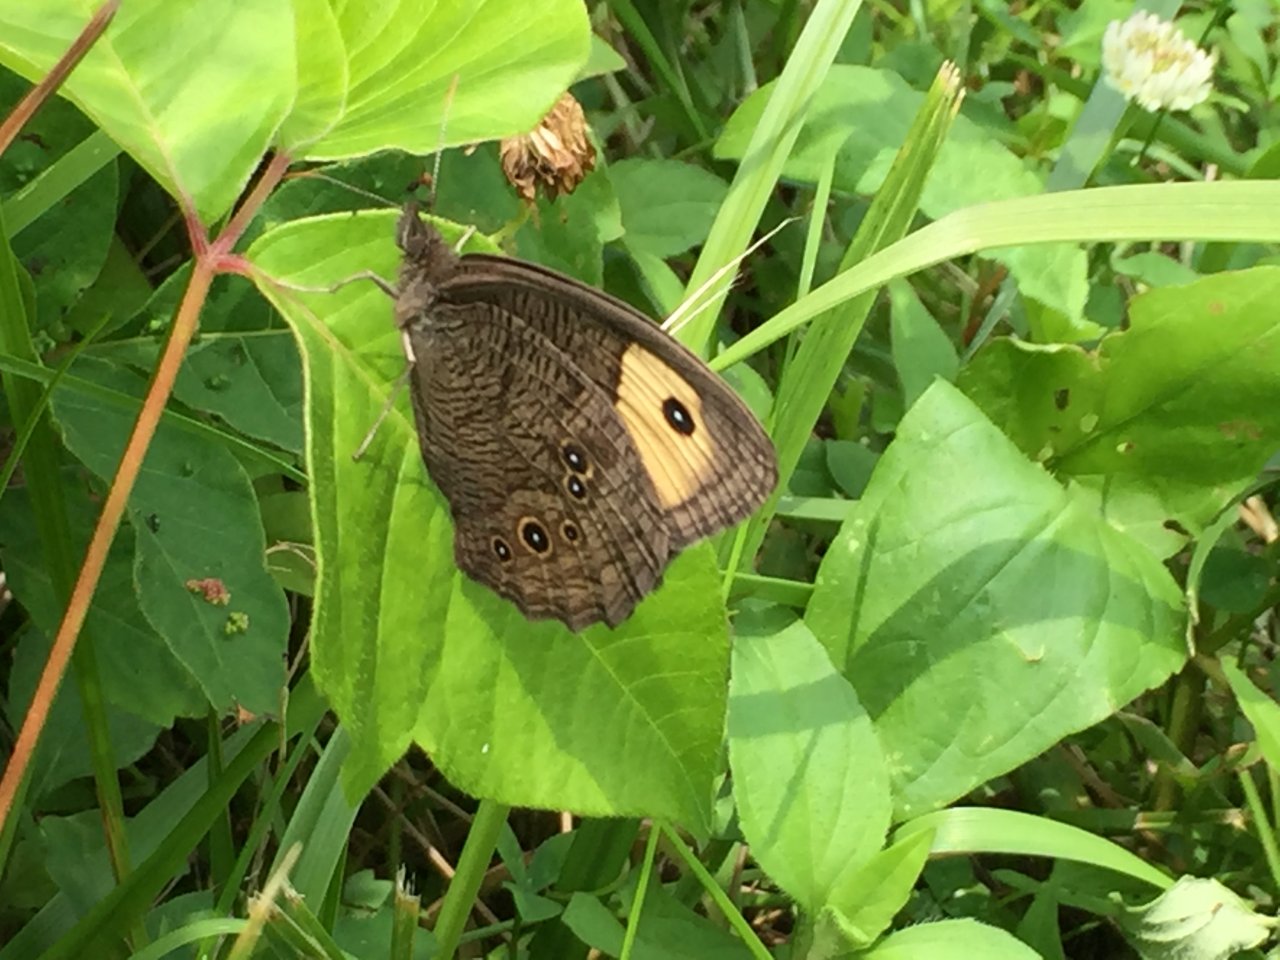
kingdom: Animalia
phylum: Arthropoda
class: Insecta
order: Lepidoptera
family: Nymphalidae
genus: Cercyonis
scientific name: Cercyonis pegala
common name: Common Wood-Nymph
